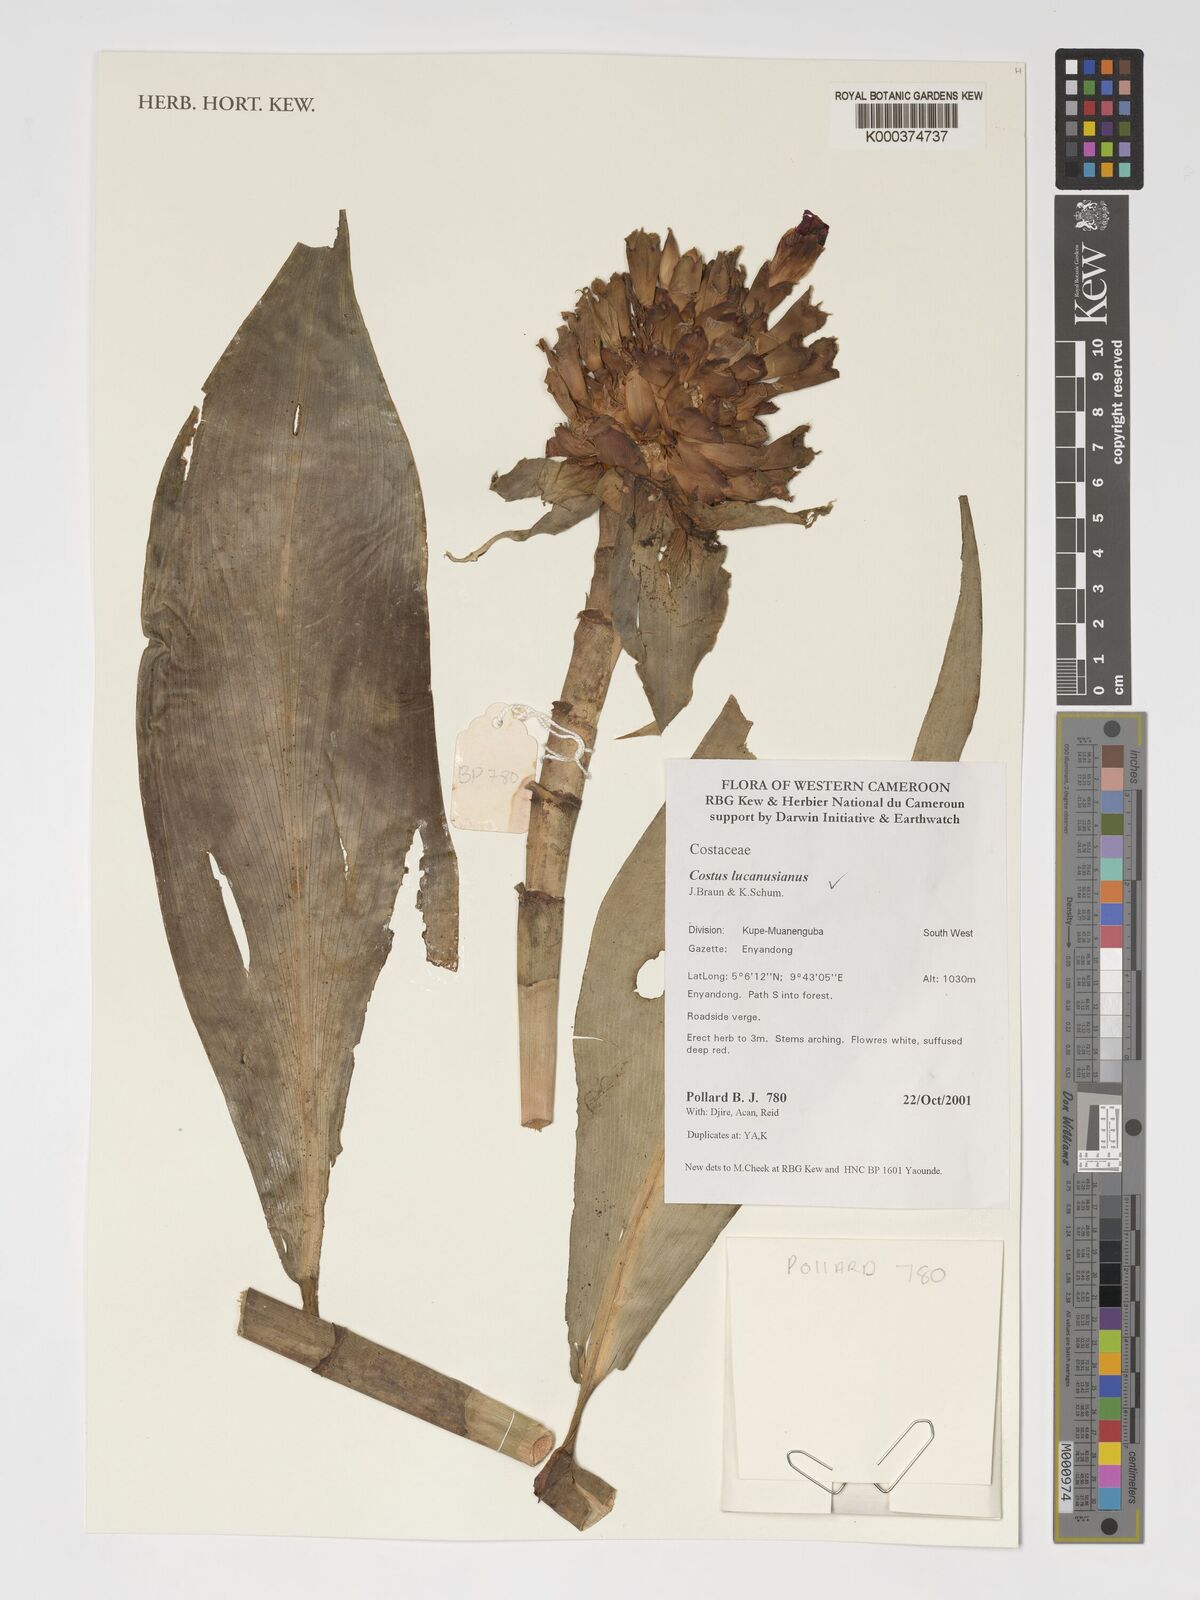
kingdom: Plantae
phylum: Tracheophyta
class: Liliopsida
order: Zingiberales
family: Costaceae
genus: Costus
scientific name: Costus lucanusianus
